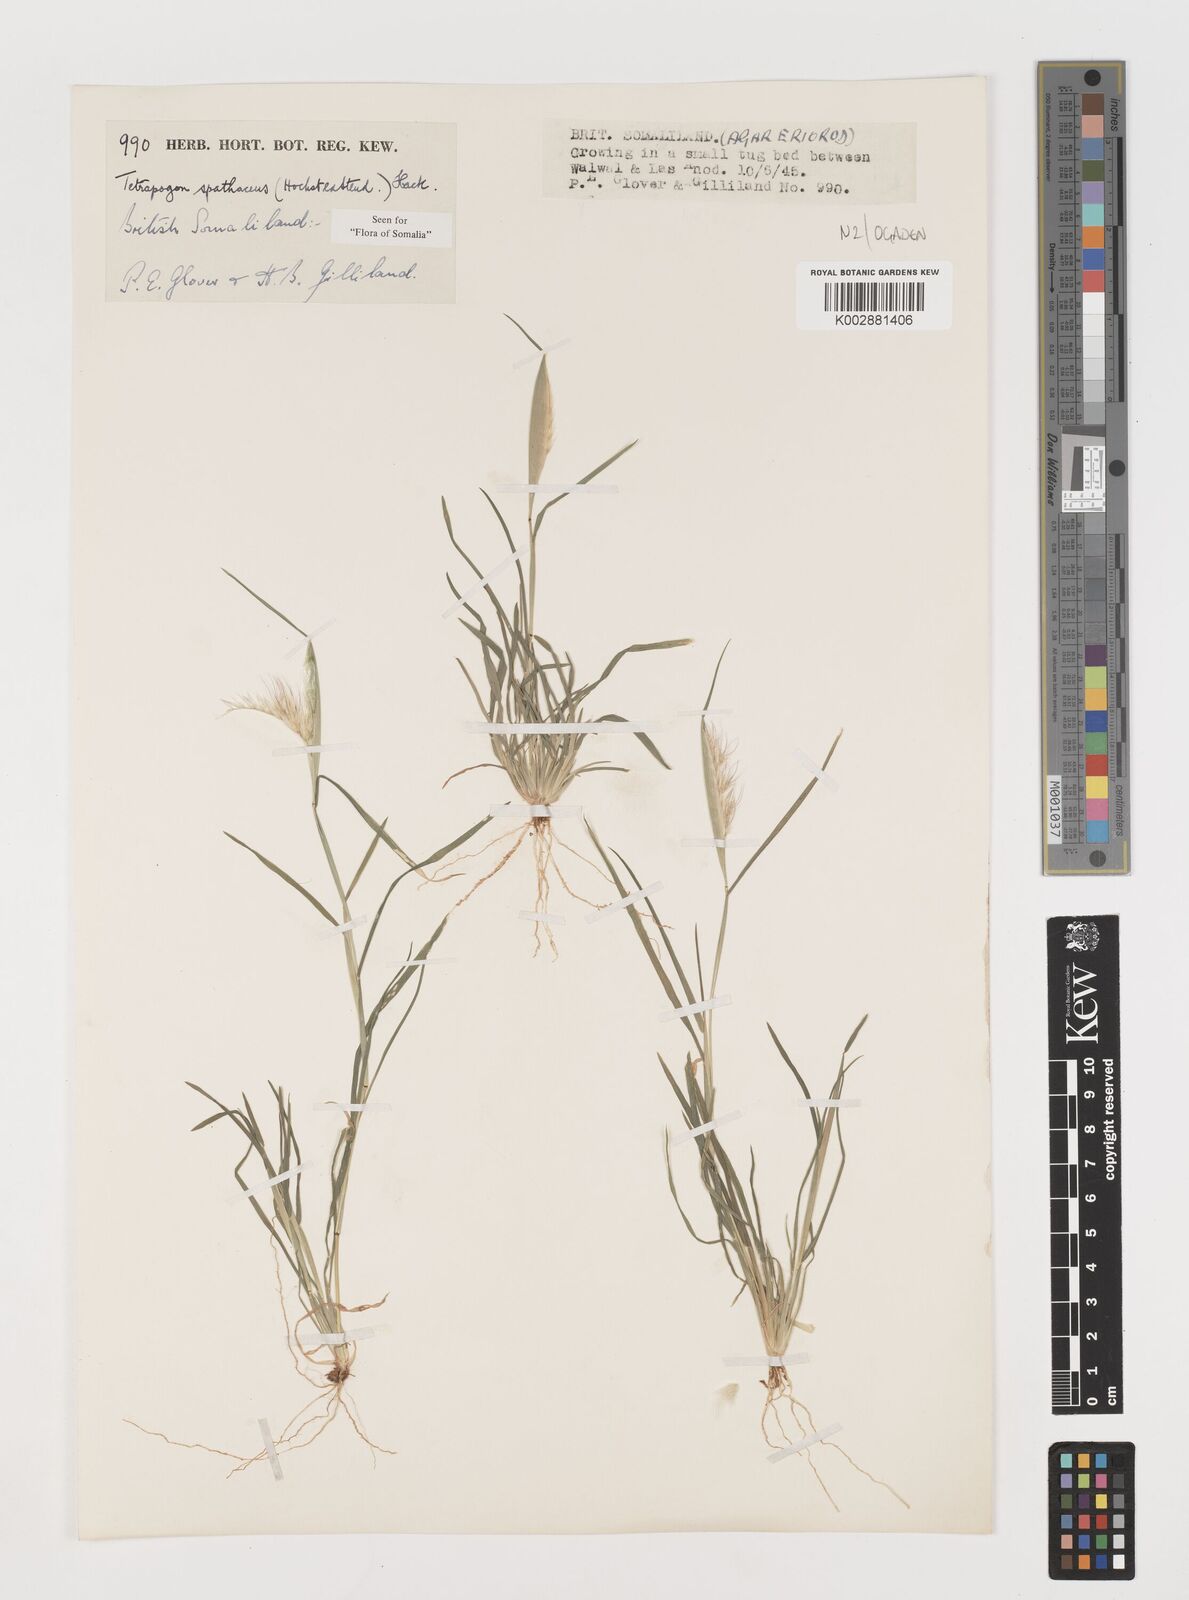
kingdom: Plantae
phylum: Tracheophyta
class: Liliopsida
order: Poales
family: Poaceae
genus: Tetrapogon
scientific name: Tetrapogon cenchriformis
